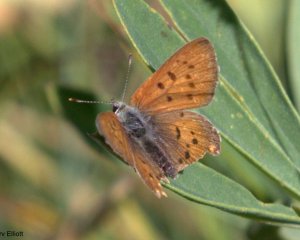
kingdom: Animalia
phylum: Arthropoda
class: Insecta
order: Lepidoptera
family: Sesiidae
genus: Sesia
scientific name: Sesia Lycaena helloides
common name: Purplish Copper
